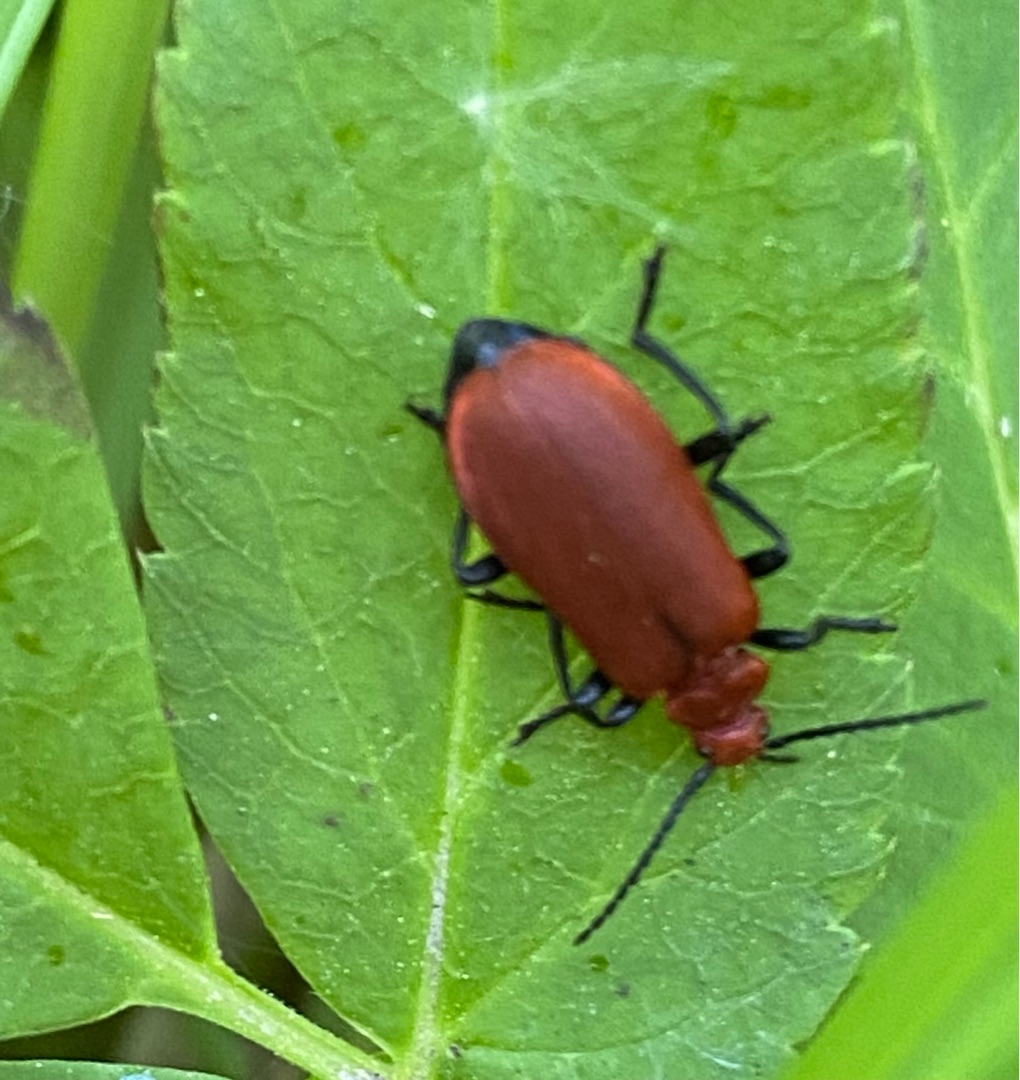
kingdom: Animalia
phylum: Arthropoda
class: Insecta
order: Coleoptera
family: Pyrochroidae
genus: Pyrochroa
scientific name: Pyrochroa serraticornis
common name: Rødhovedet kardinalbille
